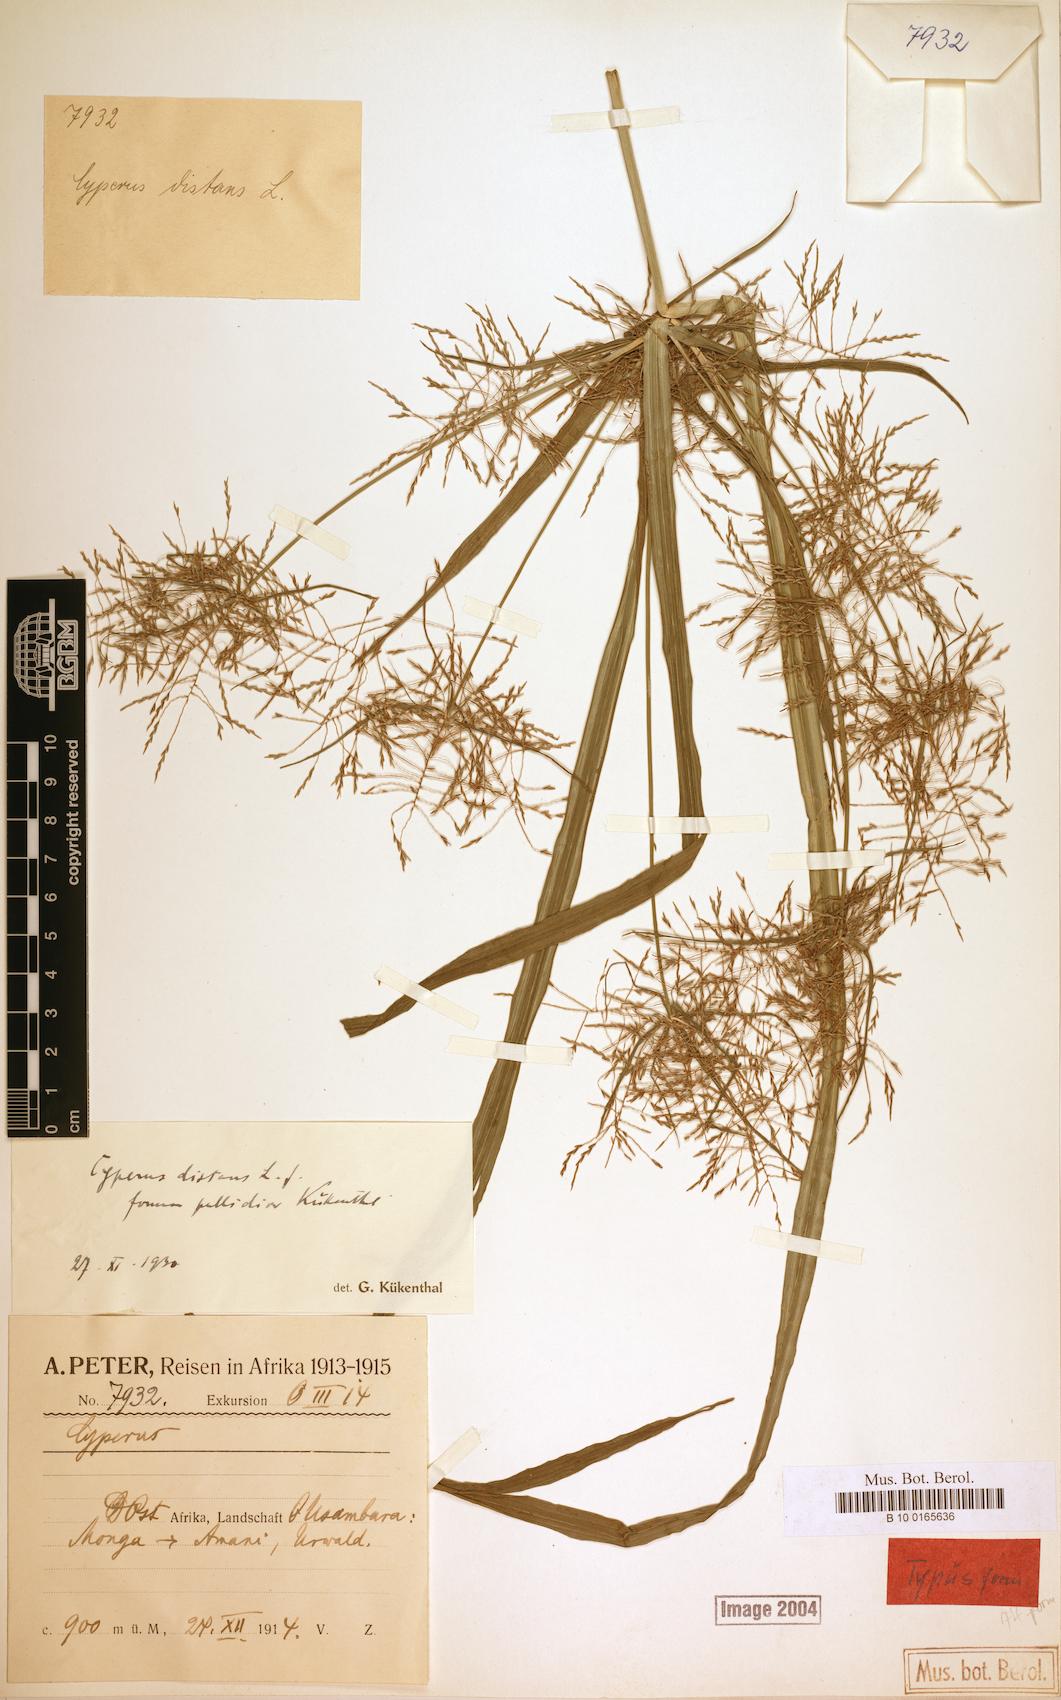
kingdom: Plantae
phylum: Tracheophyta
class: Liliopsida
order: Poales
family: Cyperaceae
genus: Cyperus
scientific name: Cyperus distans
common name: Slender cyperus
